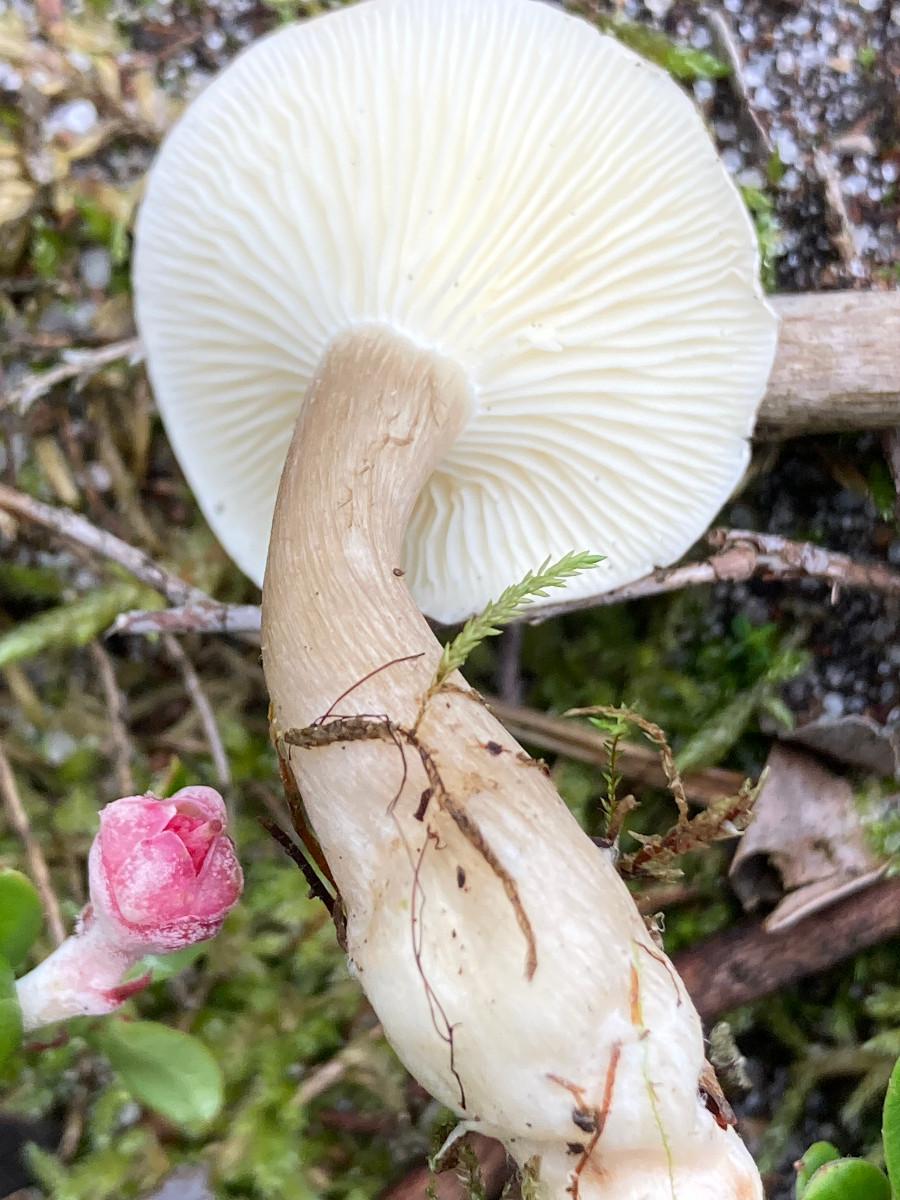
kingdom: Fungi
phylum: Basidiomycota
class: Agaricomycetes
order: Agaricales
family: Hygrophoraceae
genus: Ampulloclitocybe
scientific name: Ampulloclitocybe clavipes
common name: køllefod
